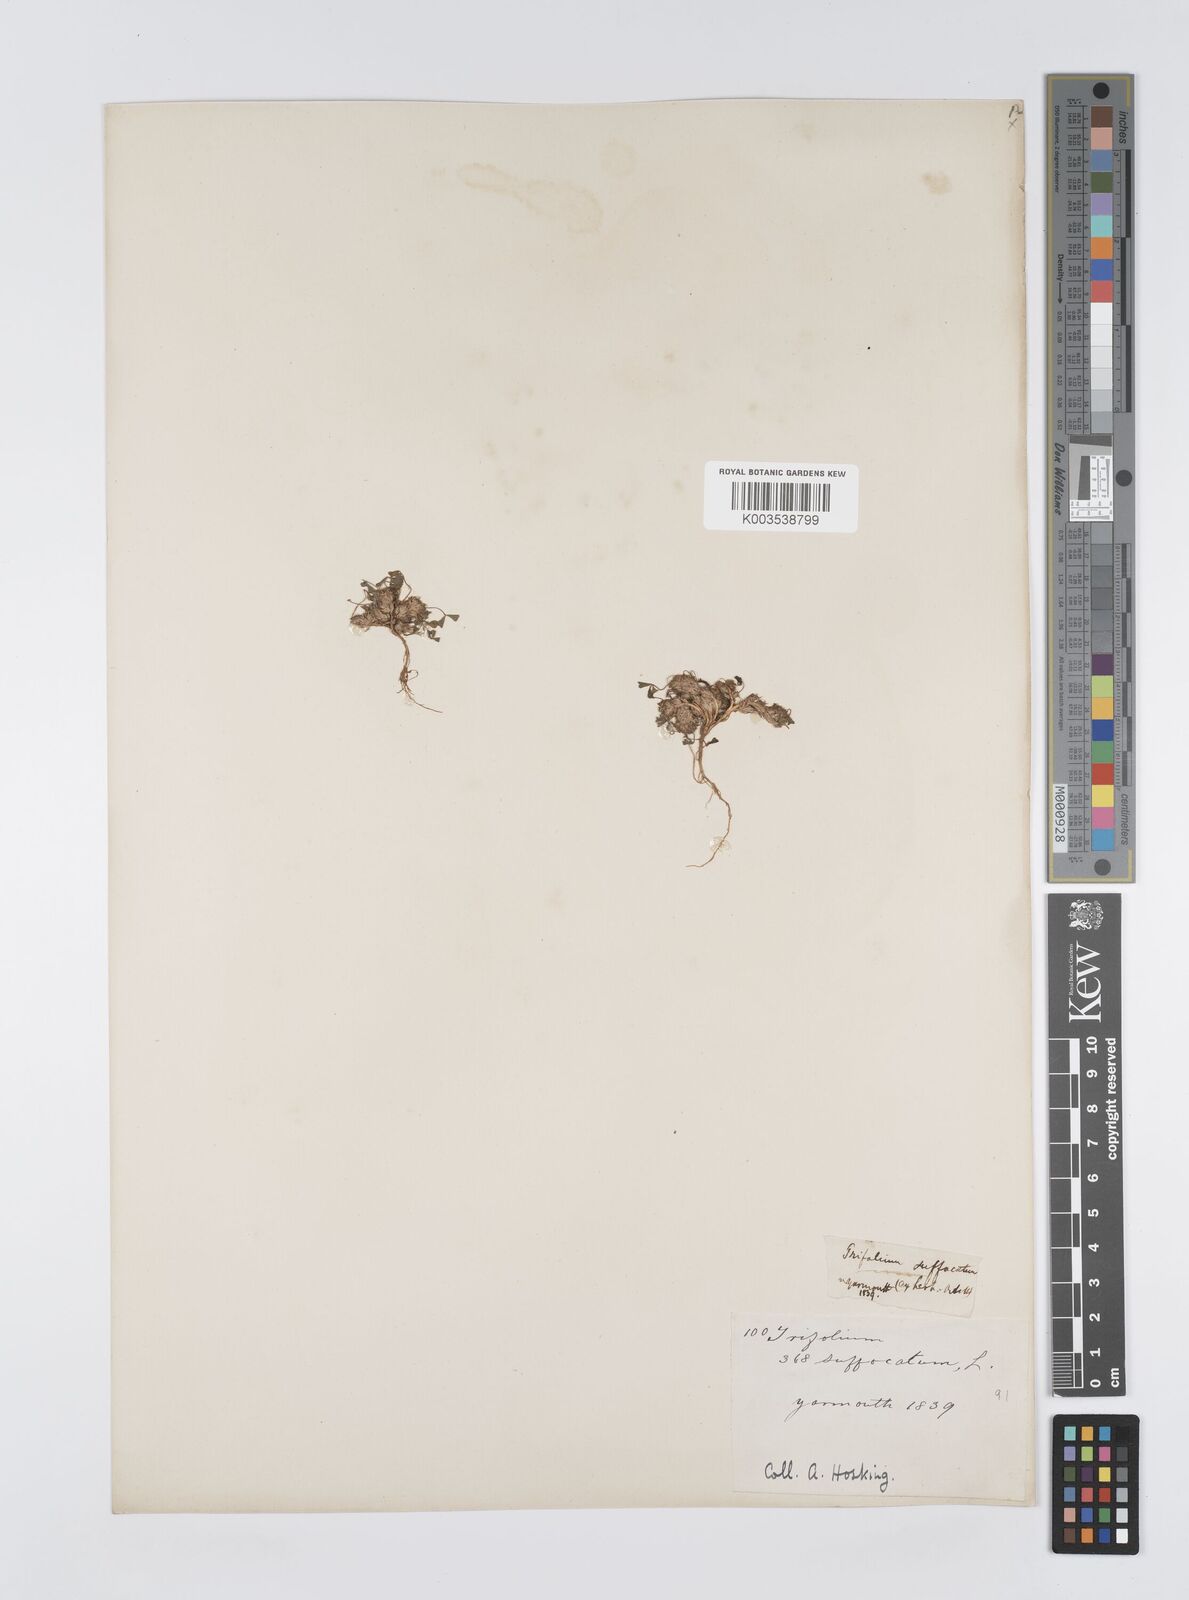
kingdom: Plantae
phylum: Tracheophyta
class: Magnoliopsida
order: Fabales
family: Fabaceae
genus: Trifolium
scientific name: Trifolium suffocatum
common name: Suffocated clover
